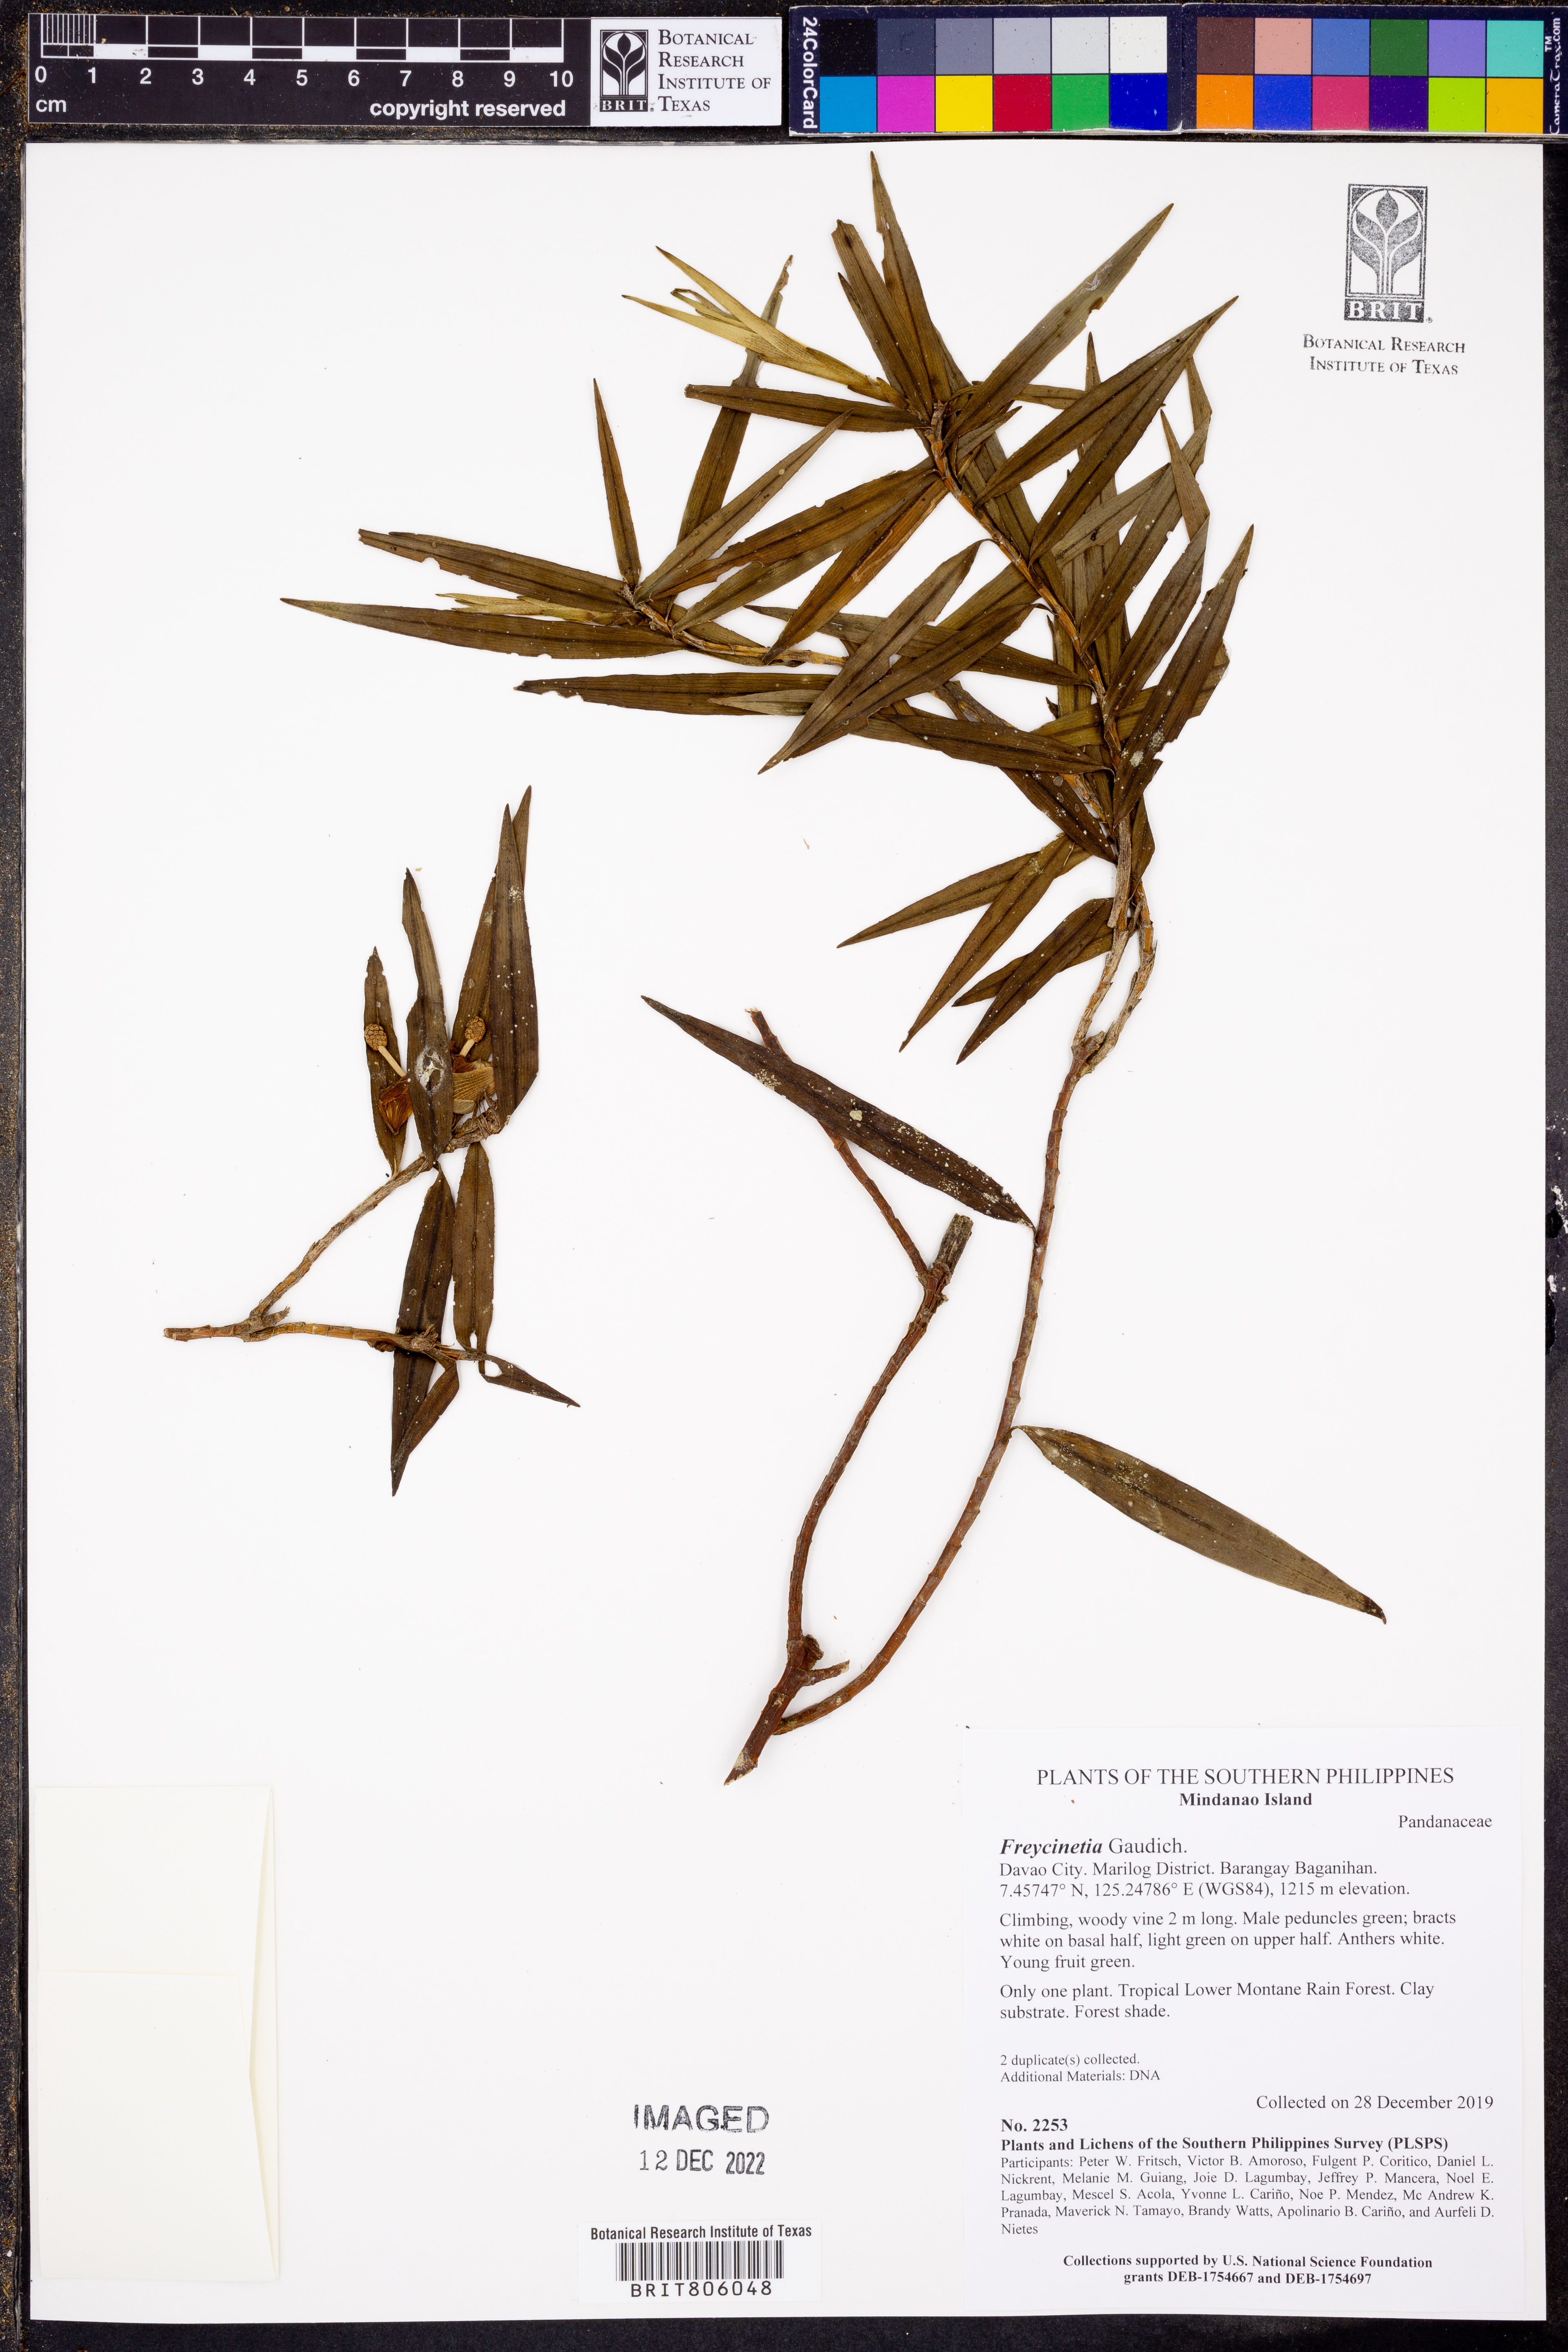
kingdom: Plantae
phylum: Tracheophyta
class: Liliopsida
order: Pandanales
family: Pandanaceae
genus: Freycinetia
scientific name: Freycinetia
